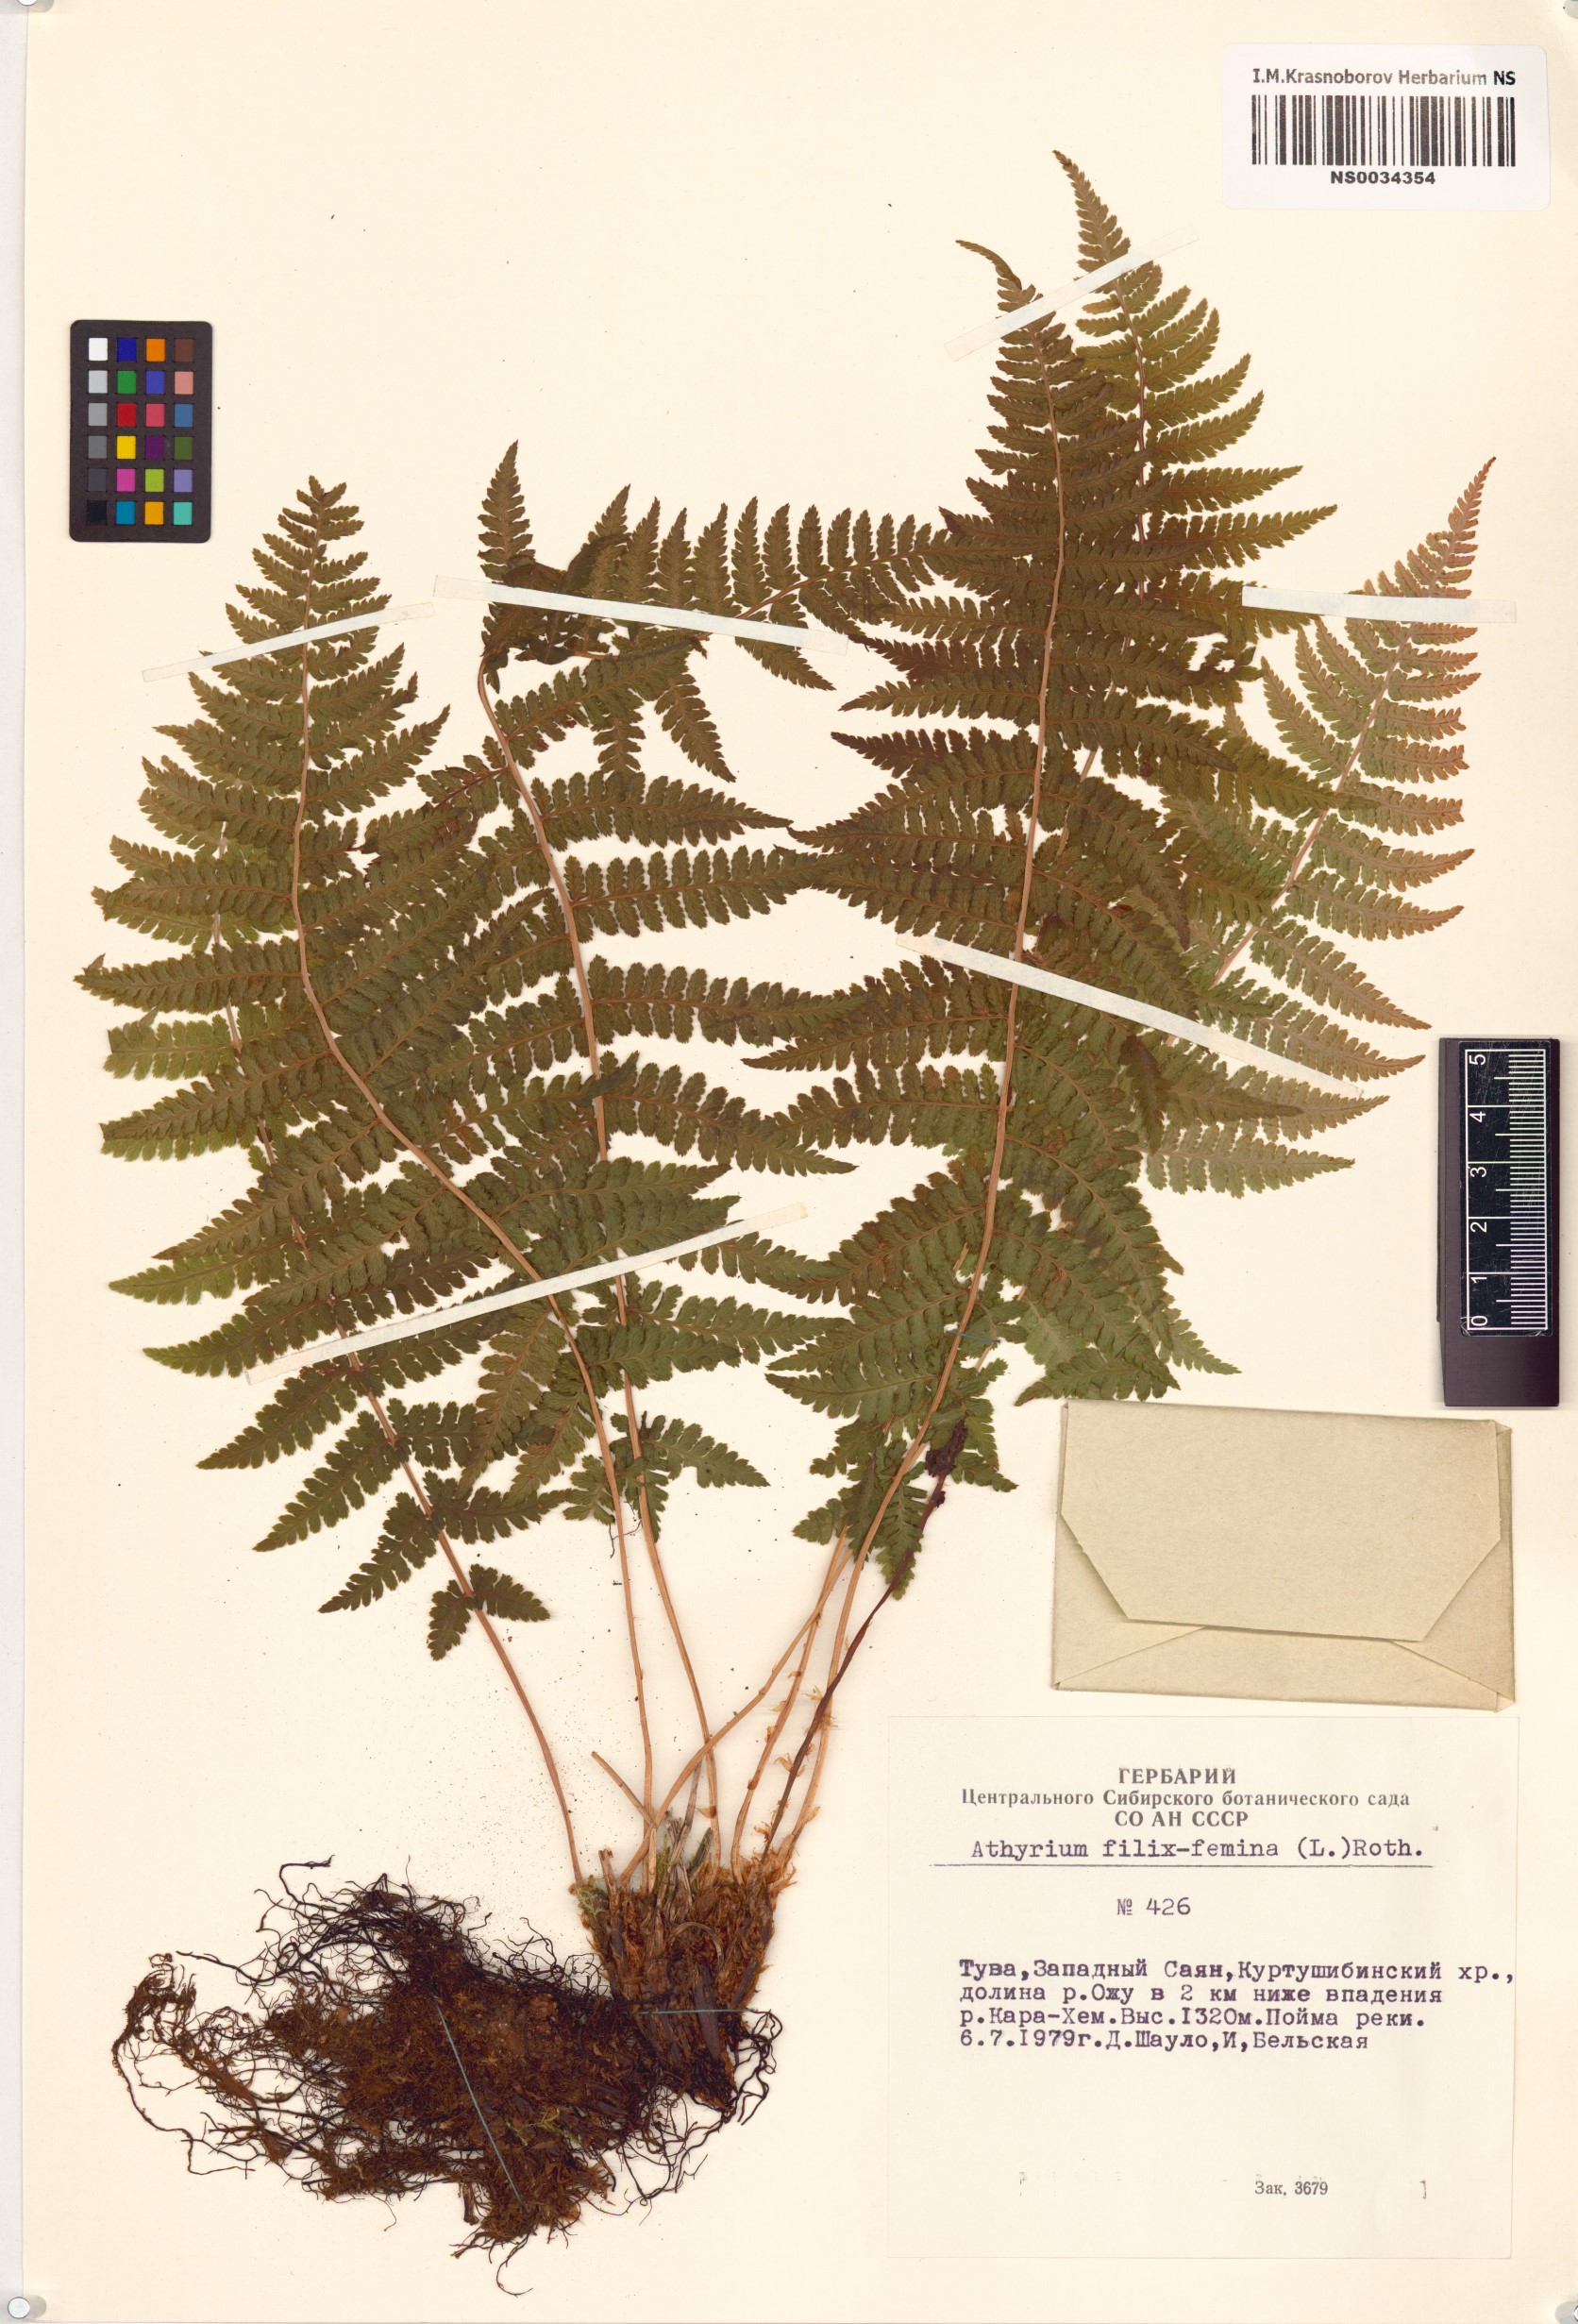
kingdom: Plantae
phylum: Tracheophyta
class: Polypodiopsida
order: Polypodiales
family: Athyriaceae
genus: Athyrium
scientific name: Athyrium filix-femina
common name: Lady fern
